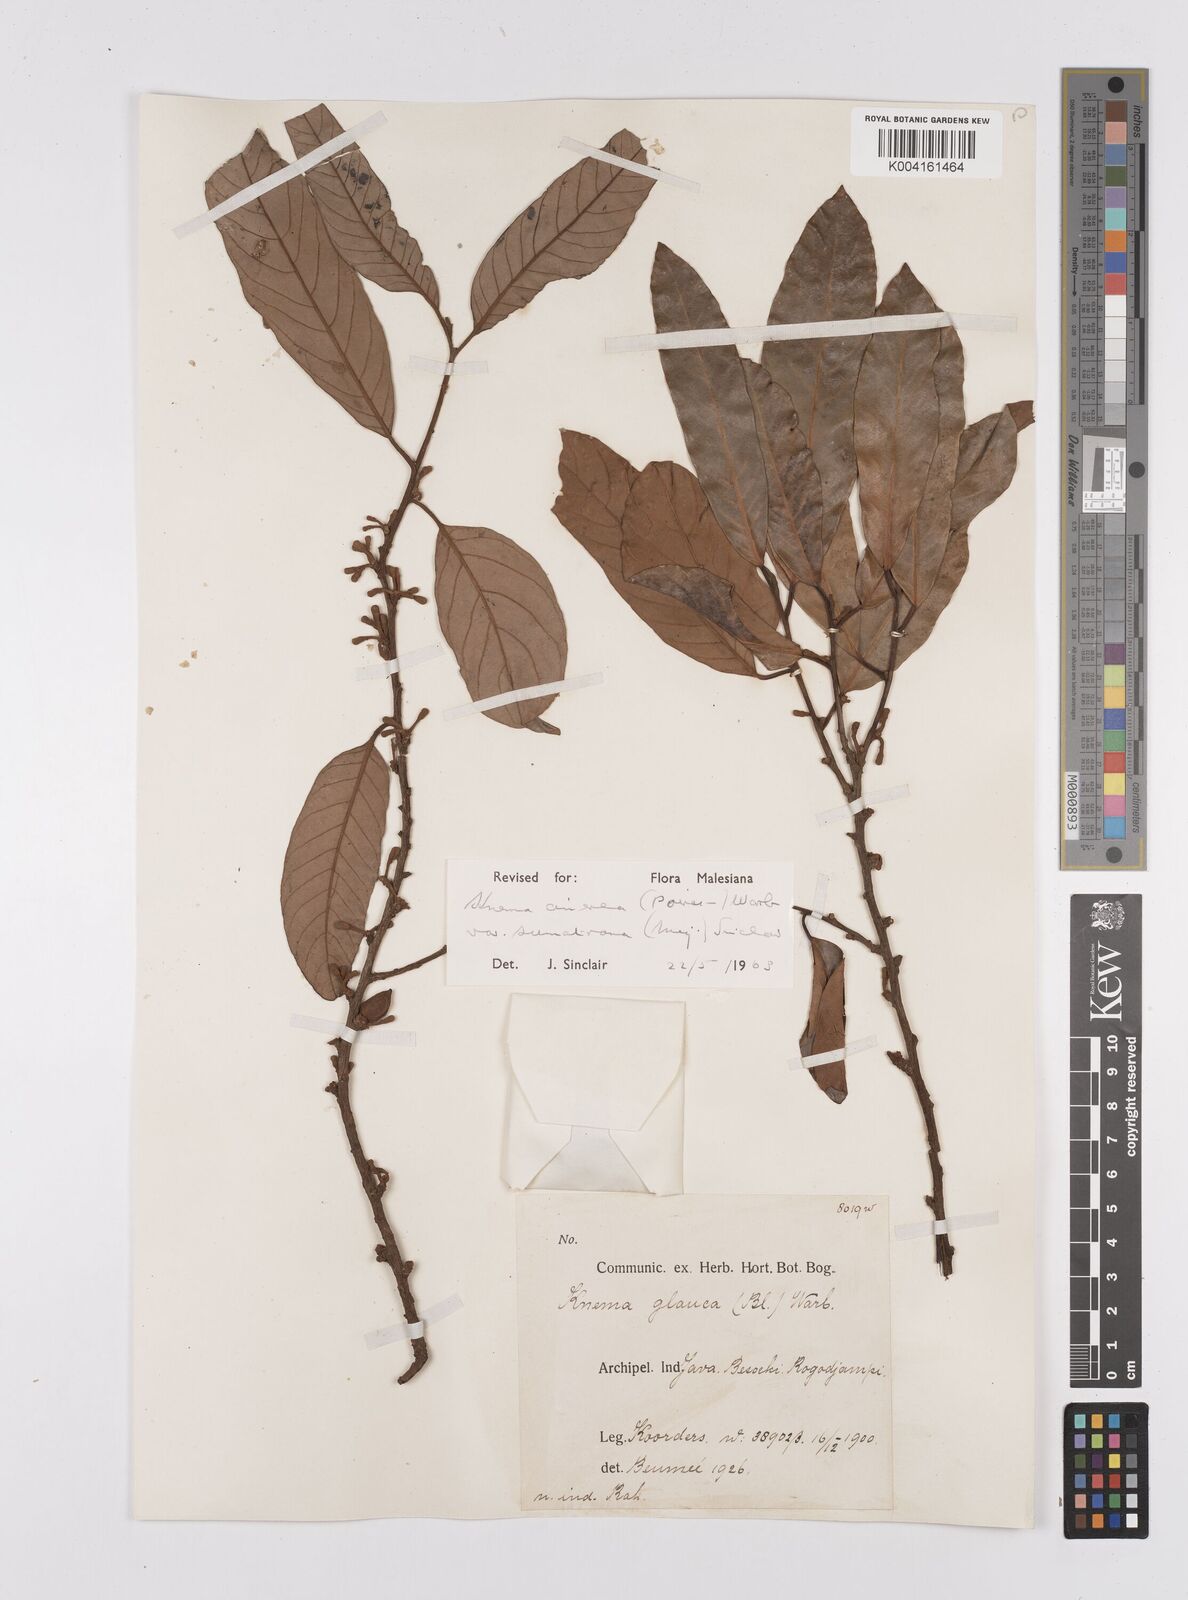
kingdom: Plantae
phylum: Tracheophyta
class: Magnoliopsida
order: Magnoliales
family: Myristicaceae
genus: Knema
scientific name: Knema
